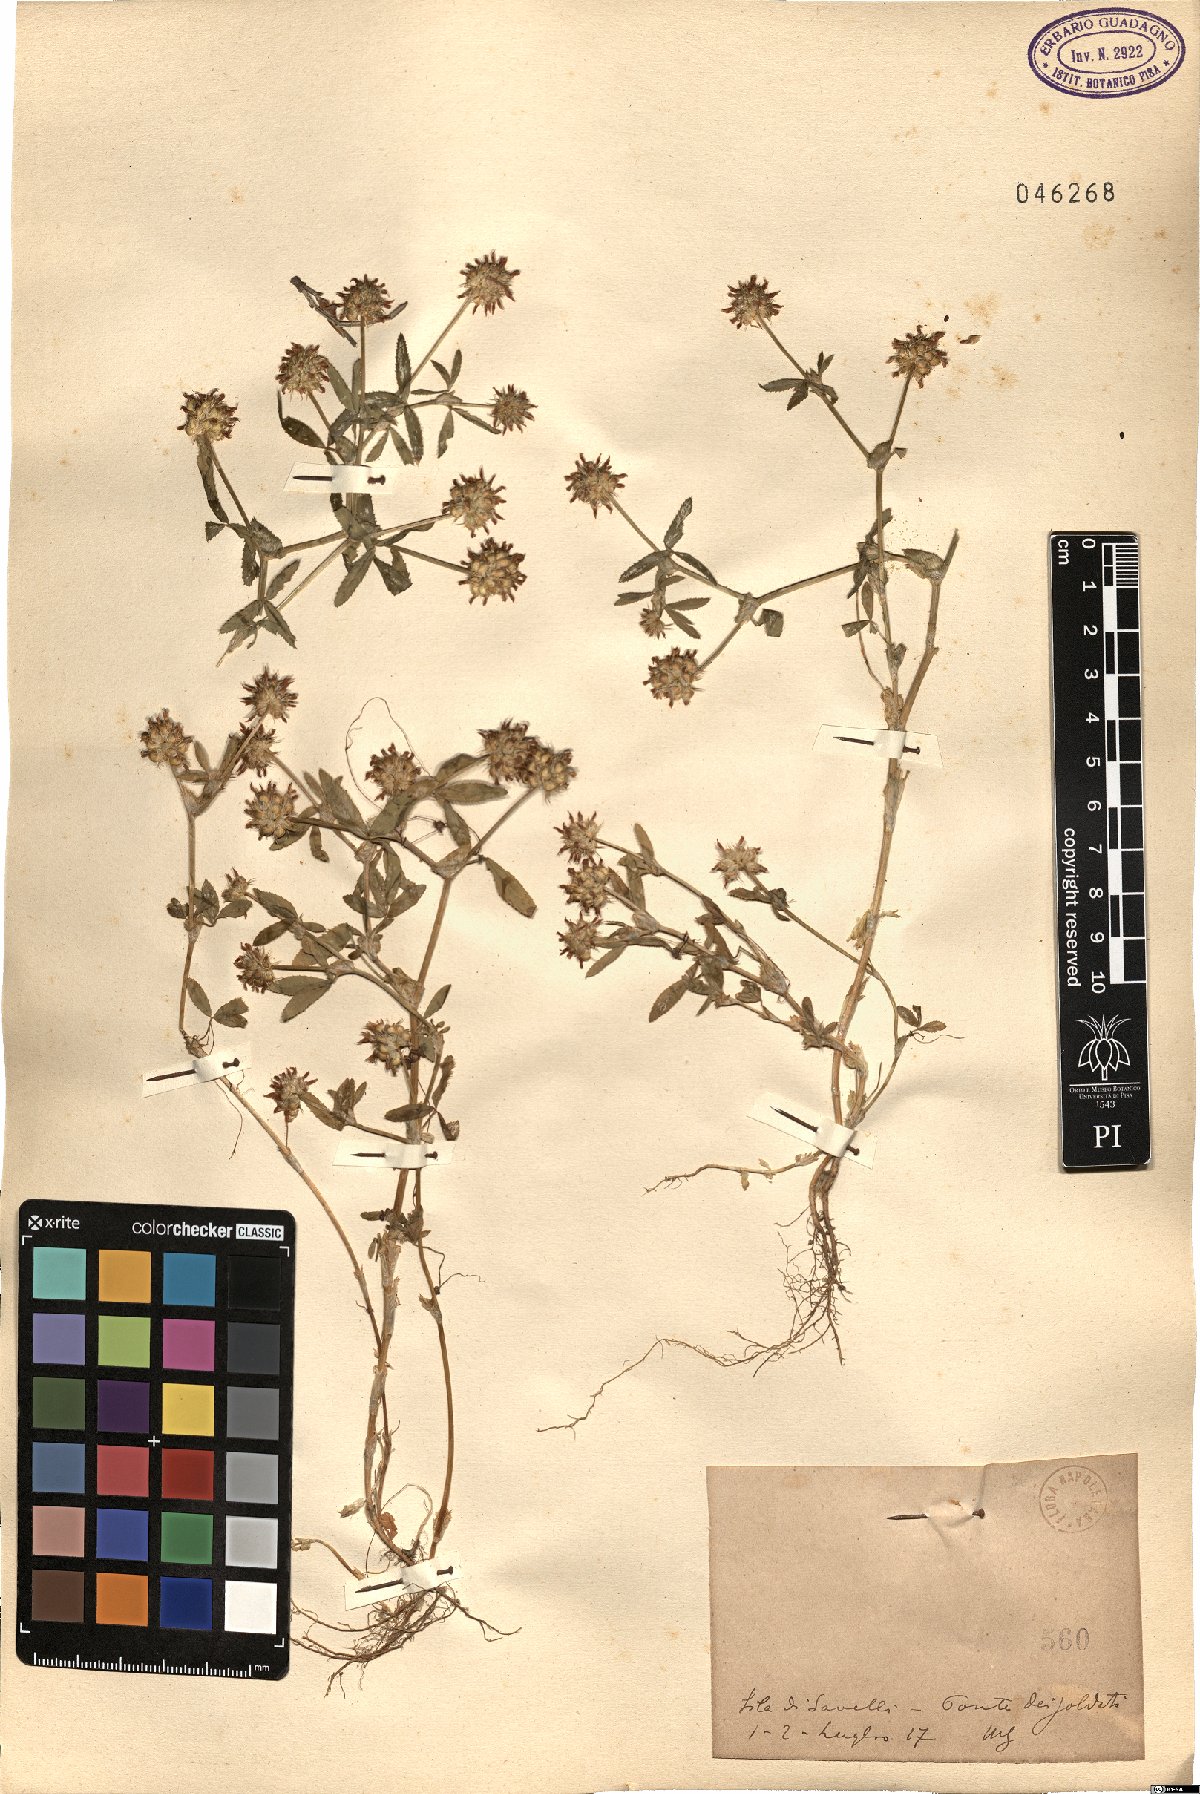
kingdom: Plantae
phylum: Tracheophyta
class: Magnoliopsida
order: Fabales
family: Fabaceae
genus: Trifolium
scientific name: Trifolium
